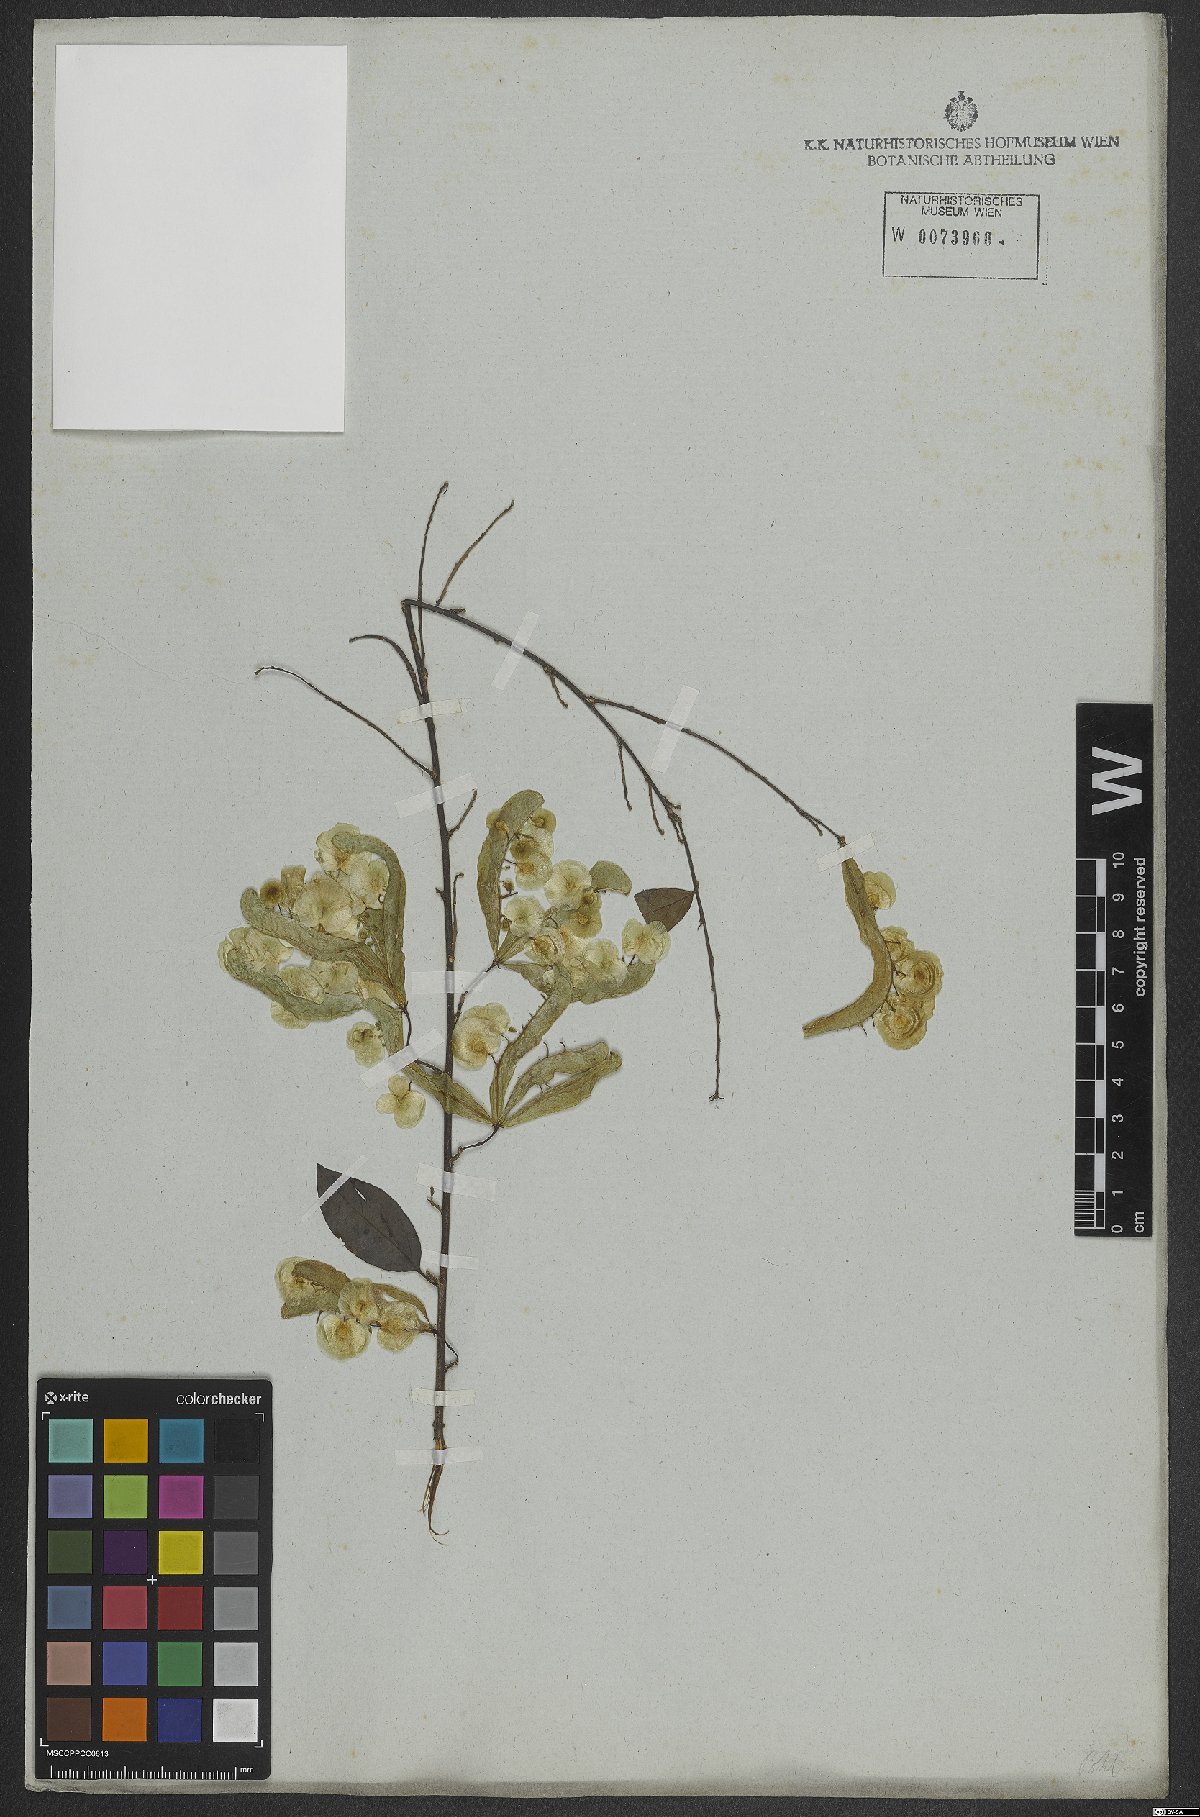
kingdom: Plantae
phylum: Tracheophyta
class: Magnoliopsida
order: Malpighiales
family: Violaceae
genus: Anchietea
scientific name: Anchietea pyrifolia
